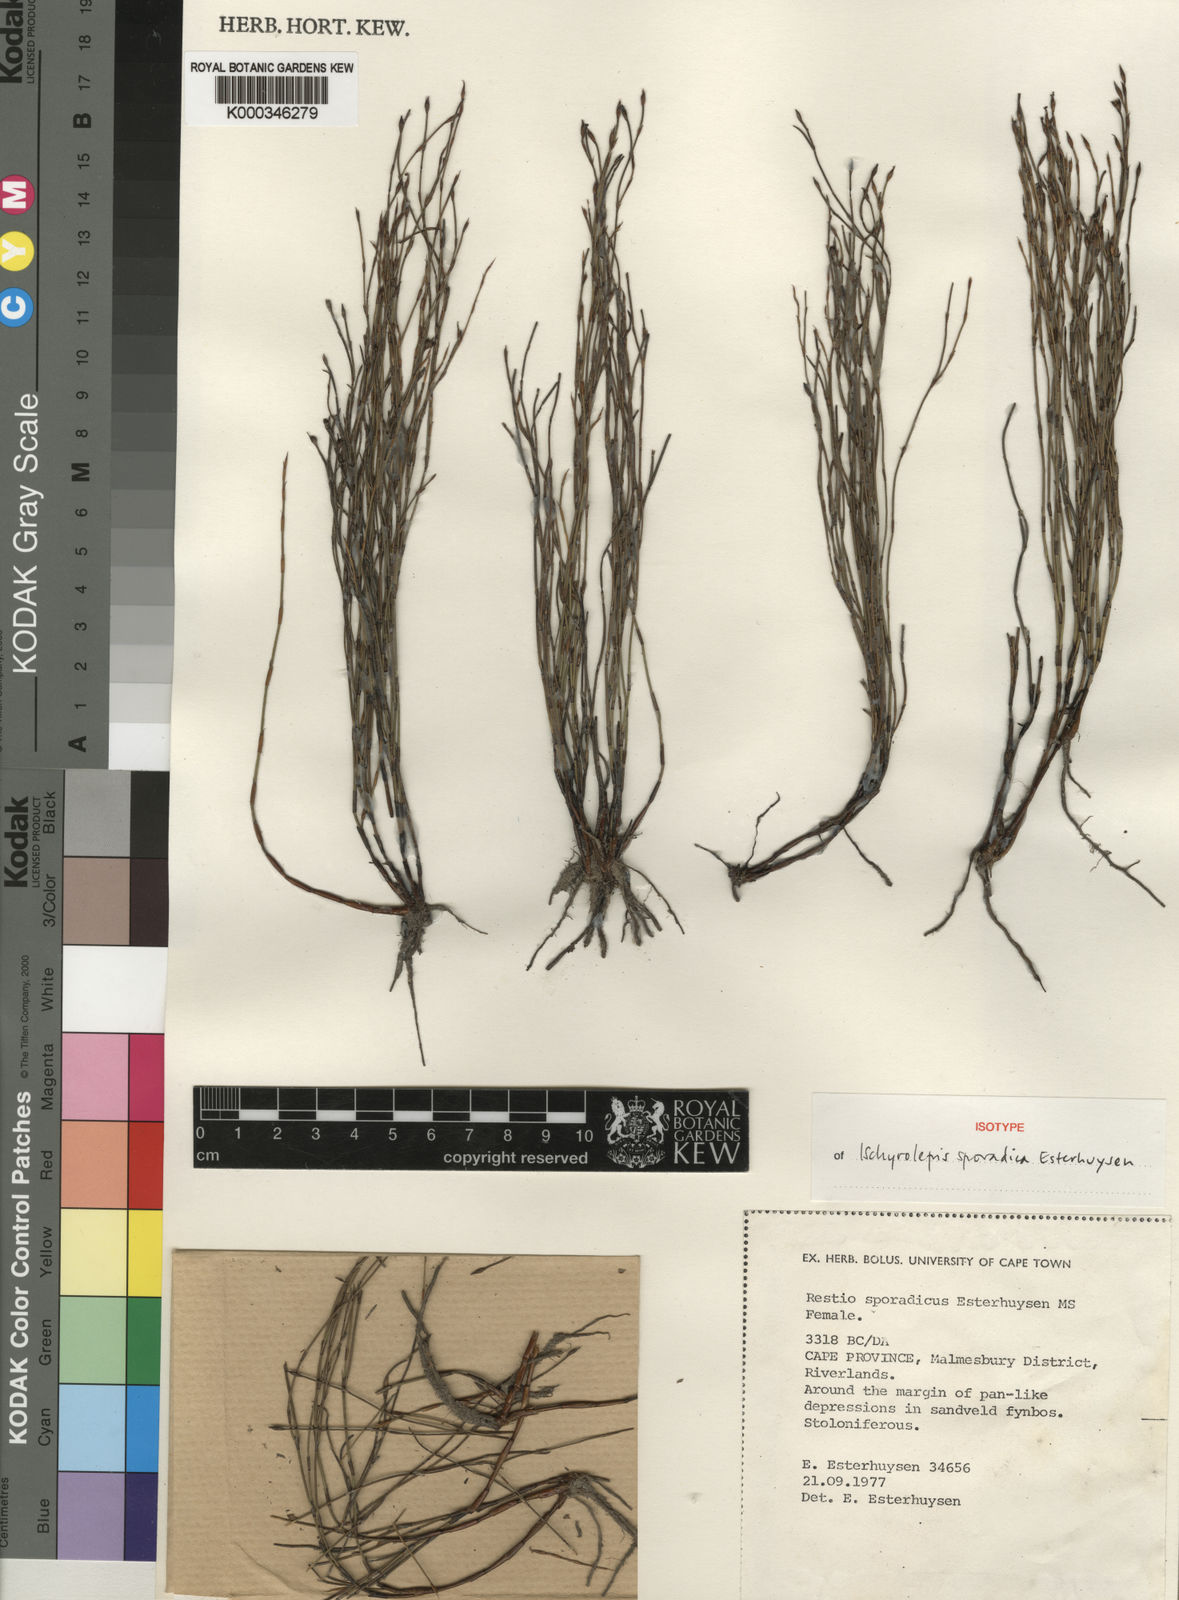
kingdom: Plantae
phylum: Tracheophyta
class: Liliopsida
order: Poales
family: Restionaceae
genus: Restio
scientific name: Restio sporadicus
